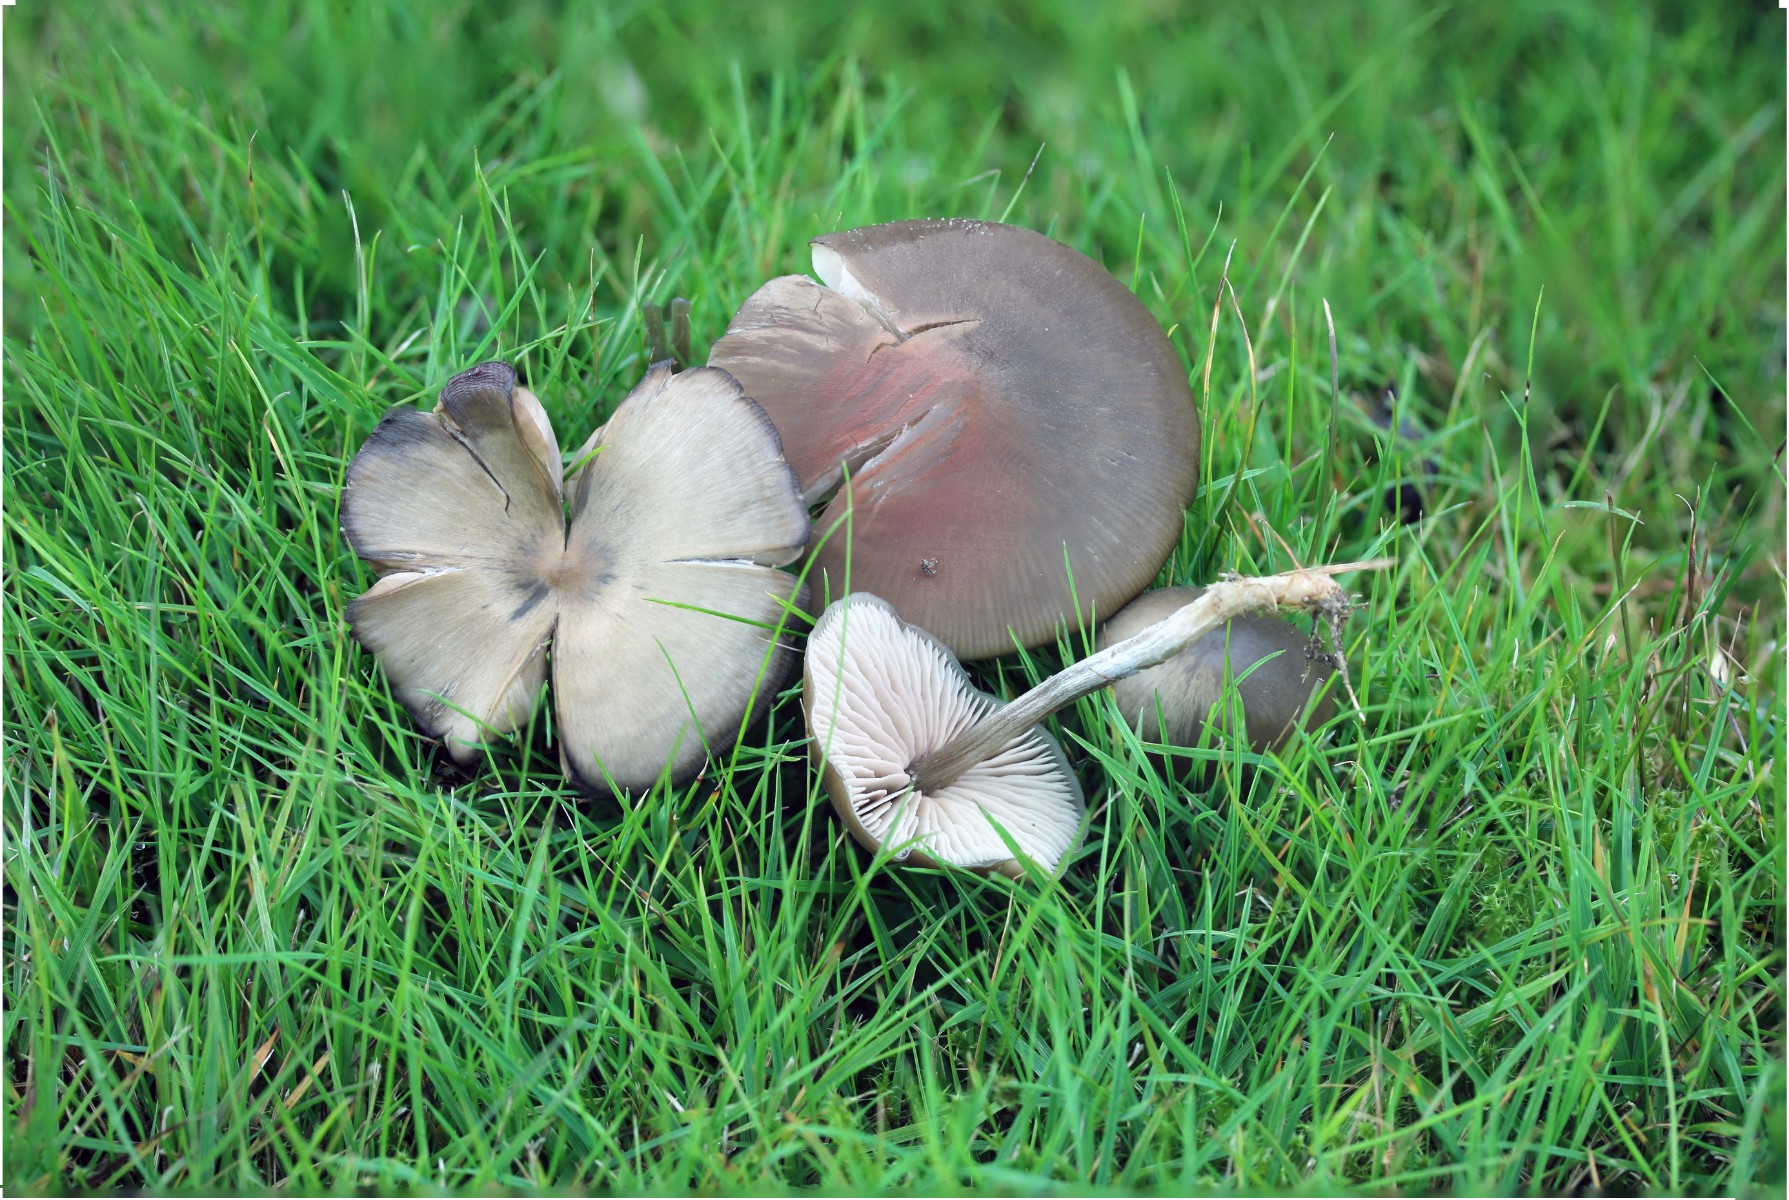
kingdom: Fungi
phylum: Basidiomycota
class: Agaricomycetes
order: Agaricales
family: Entolomataceae
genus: Entoloma
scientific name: Entoloma
